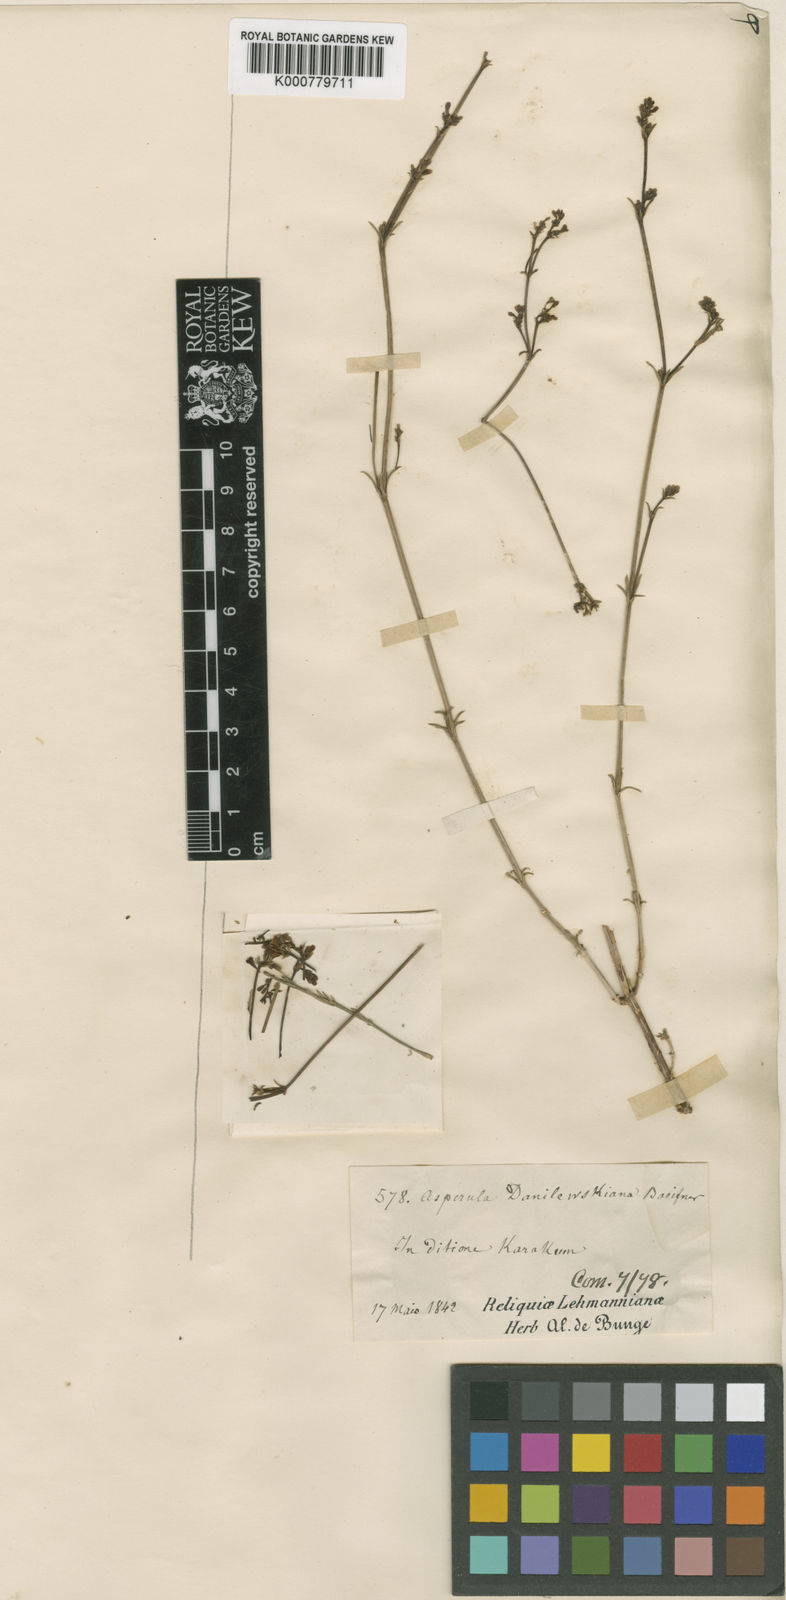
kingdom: Plantae
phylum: Tracheophyta
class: Magnoliopsida
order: Gentianales
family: Rubiaceae
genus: Asperula
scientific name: Asperula
